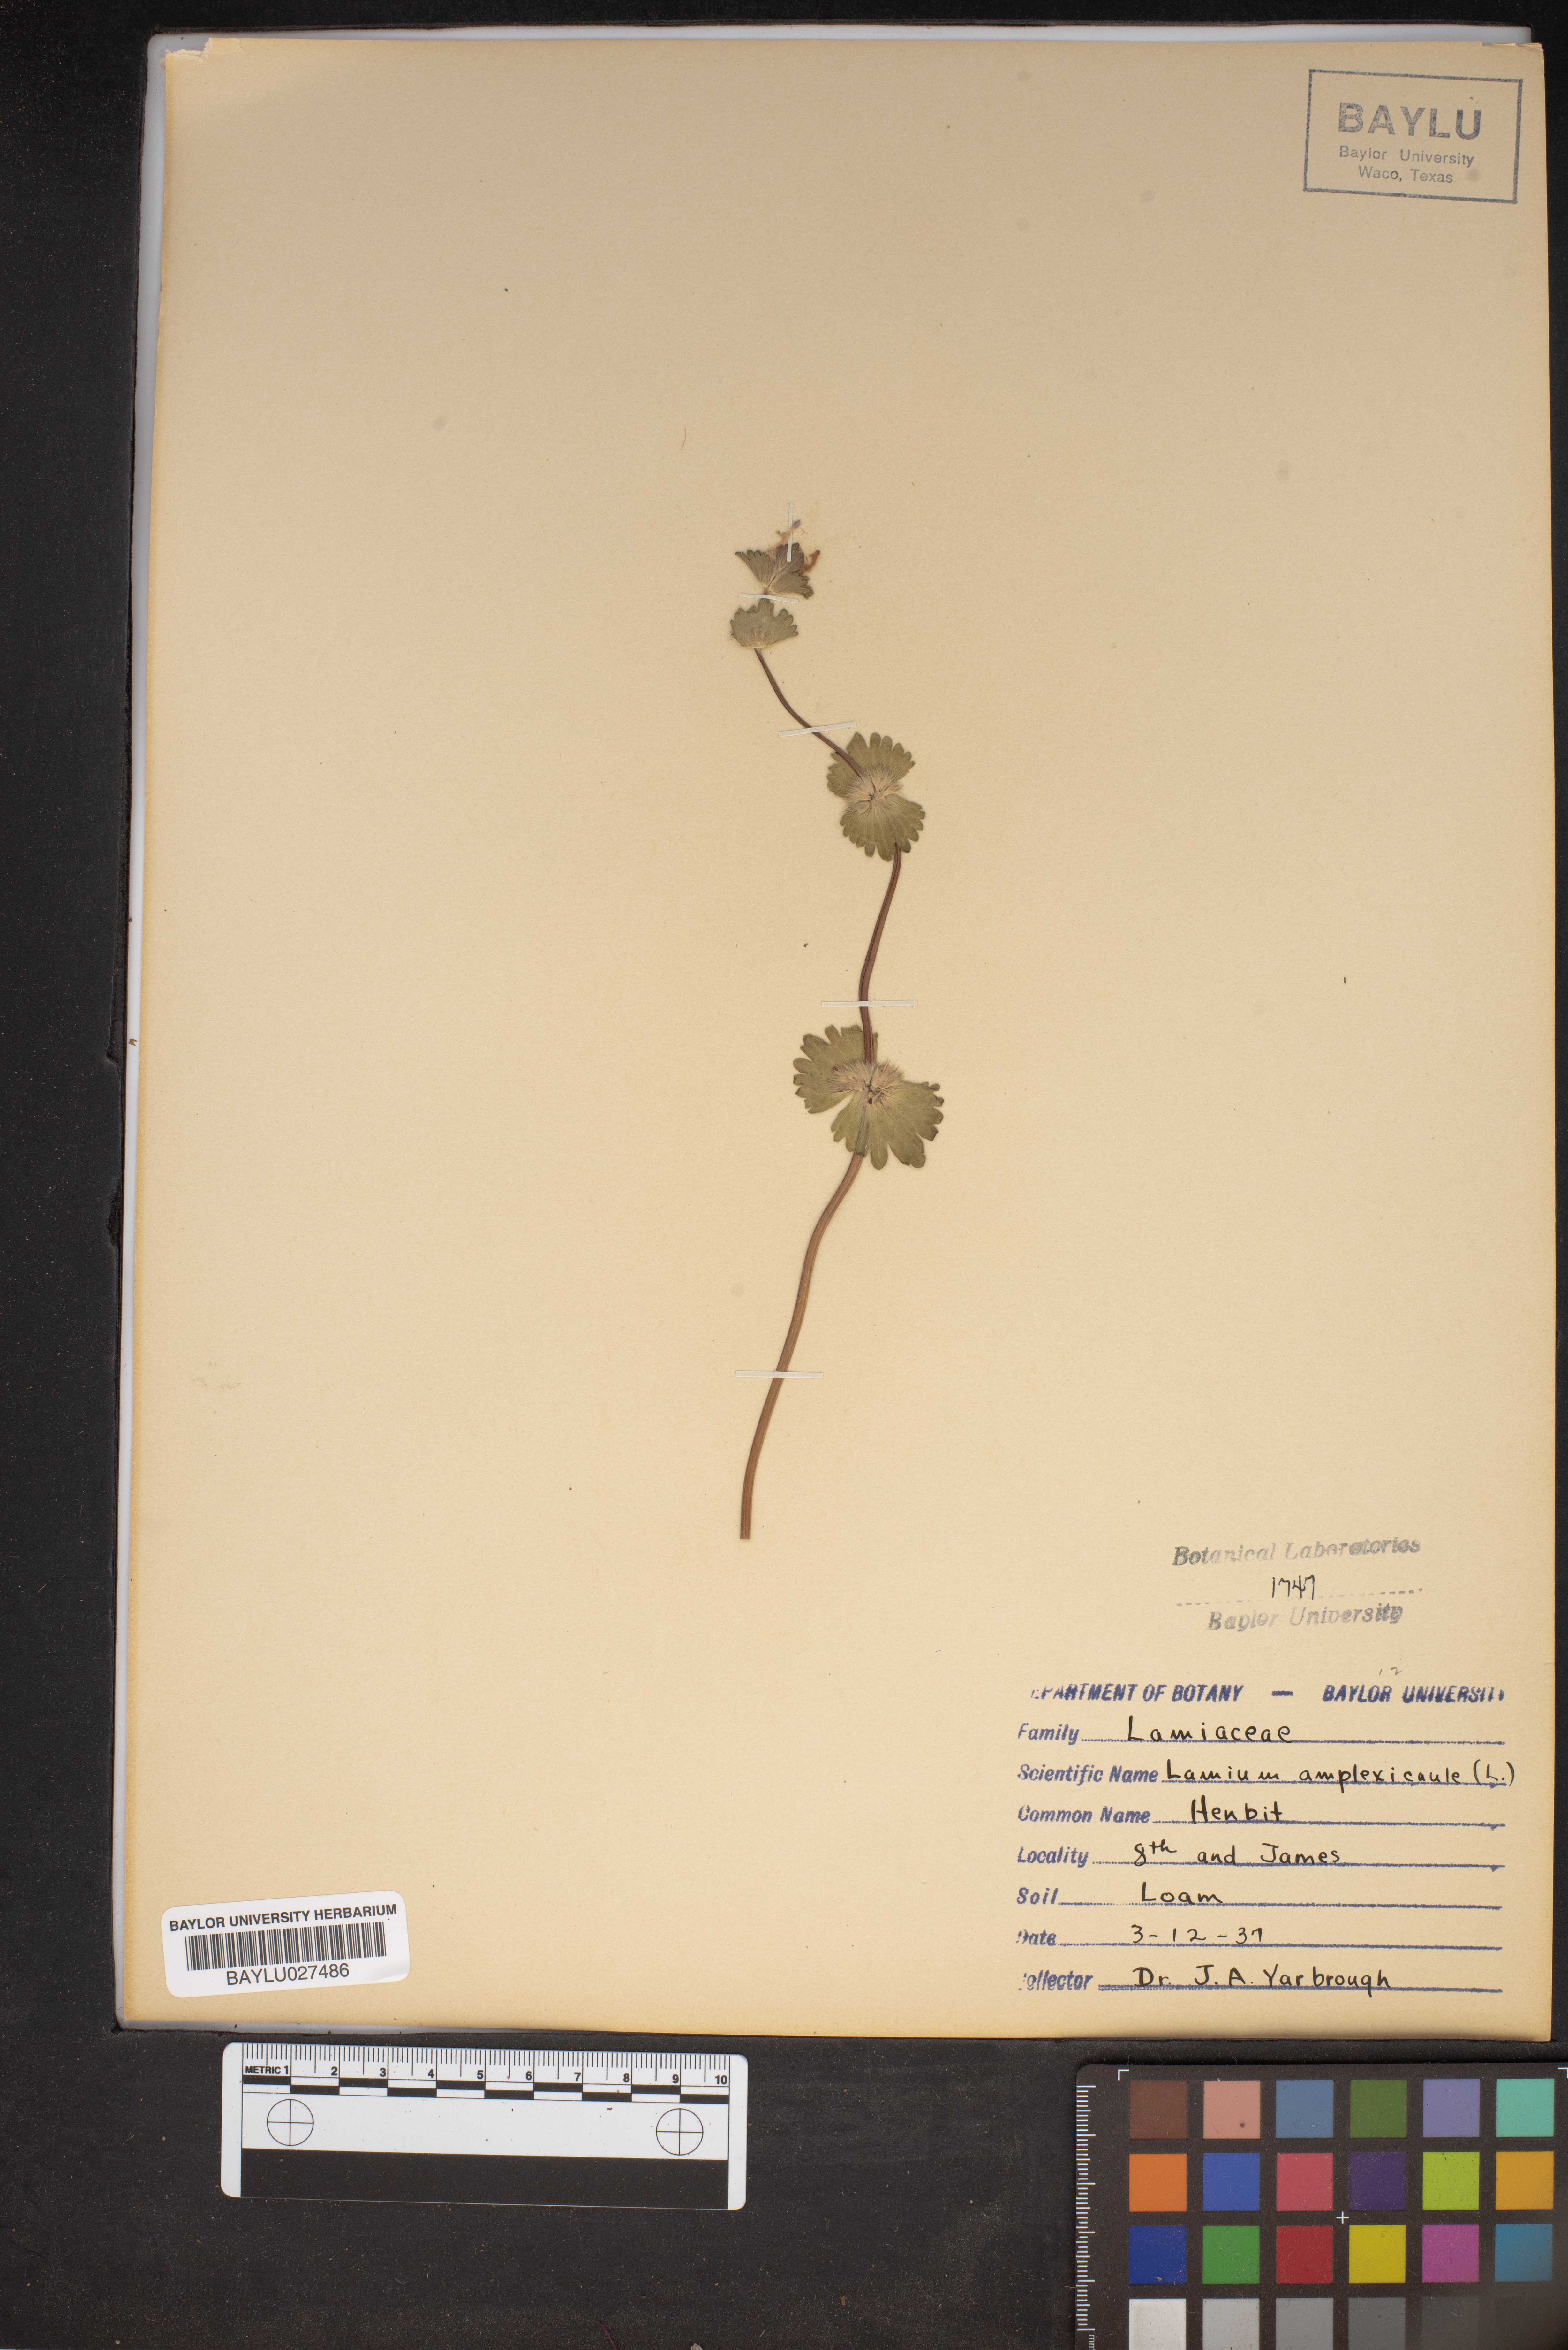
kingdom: Plantae
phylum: Tracheophyta
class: Magnoliopsida
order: Lamiales
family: Lamiaceae
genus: Lamium
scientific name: Lamium amplexicaule
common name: Henbit dead-nettle
